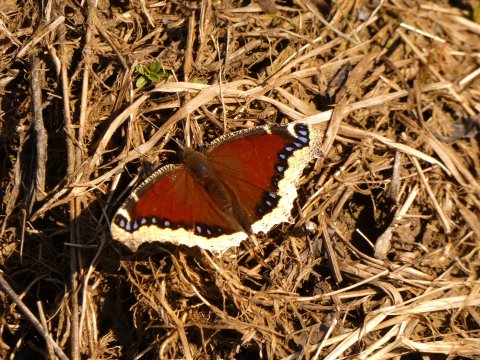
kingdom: Animalia
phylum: Arthropoda
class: Insecta
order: Lepidoptera
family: Nymphalidae
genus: Nymphalis
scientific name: Nymphalis antiopa
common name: Mourning Cloak
